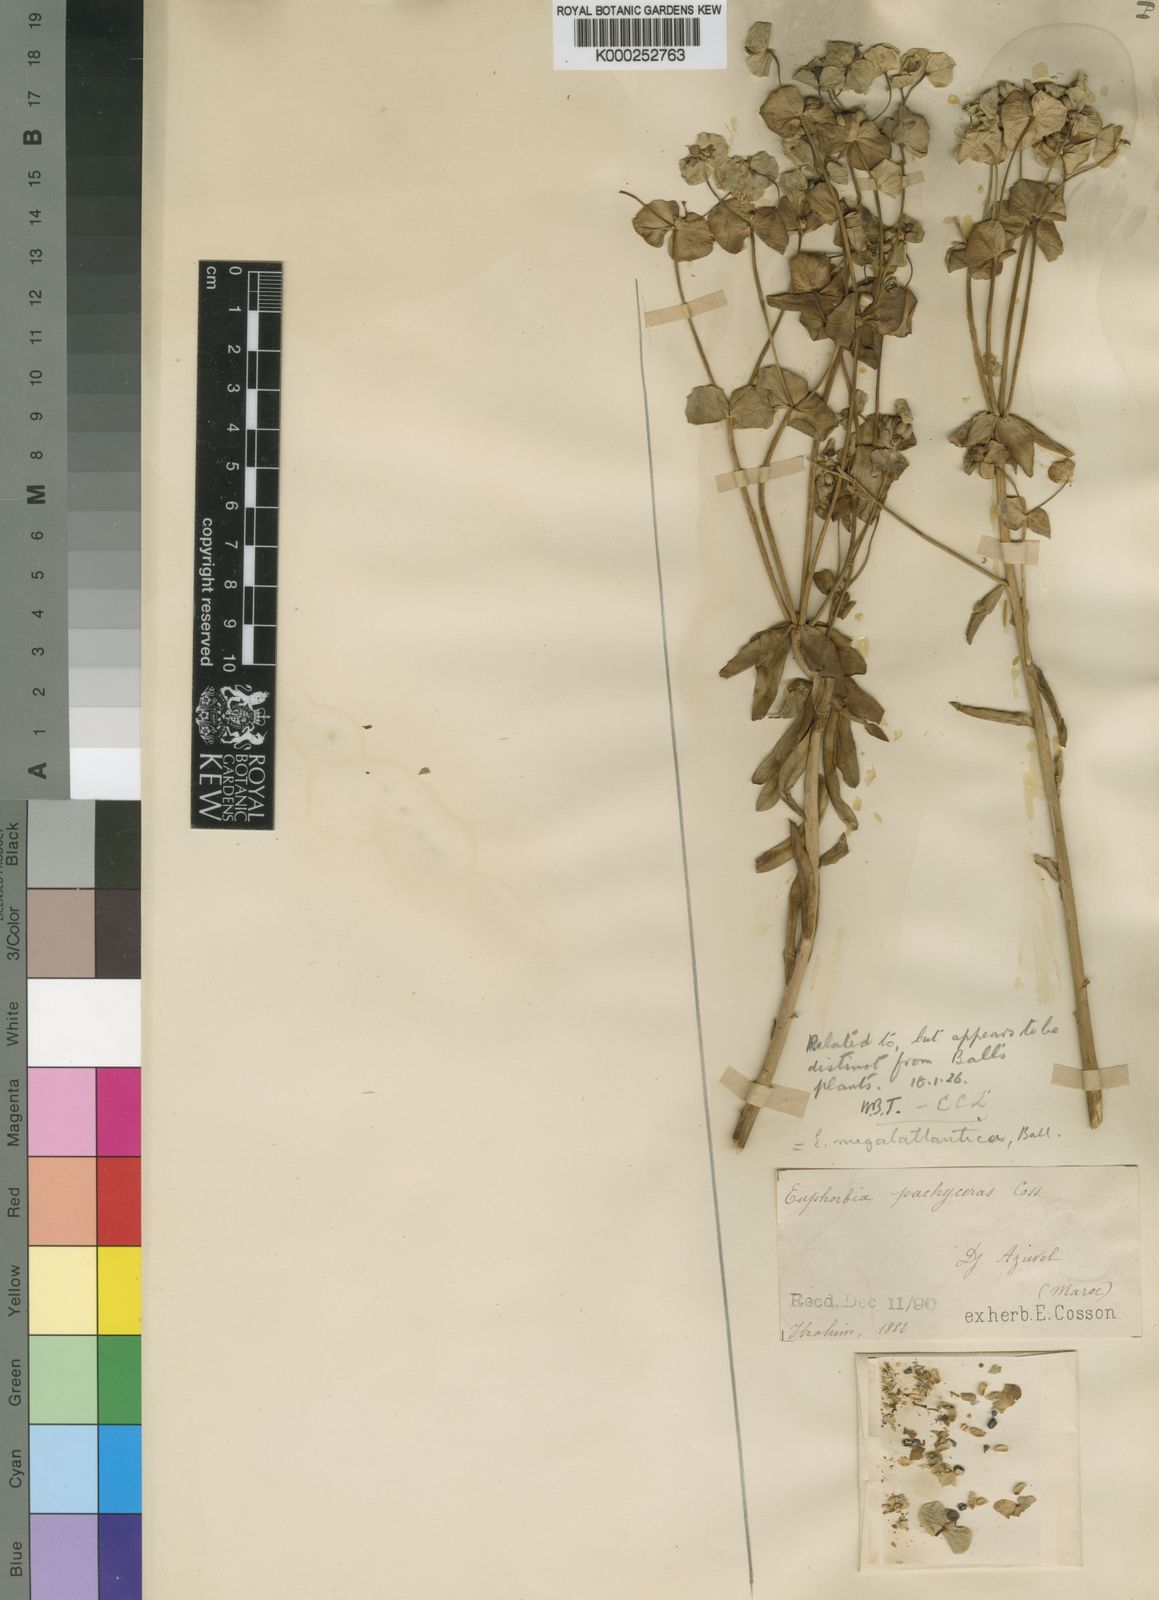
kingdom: Plantae
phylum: Tracheophyta
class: Magnoliopsida
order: Malpighiales
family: Euphorbiaceae
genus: Euphorbia
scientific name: Euphorbia megalatlantica
